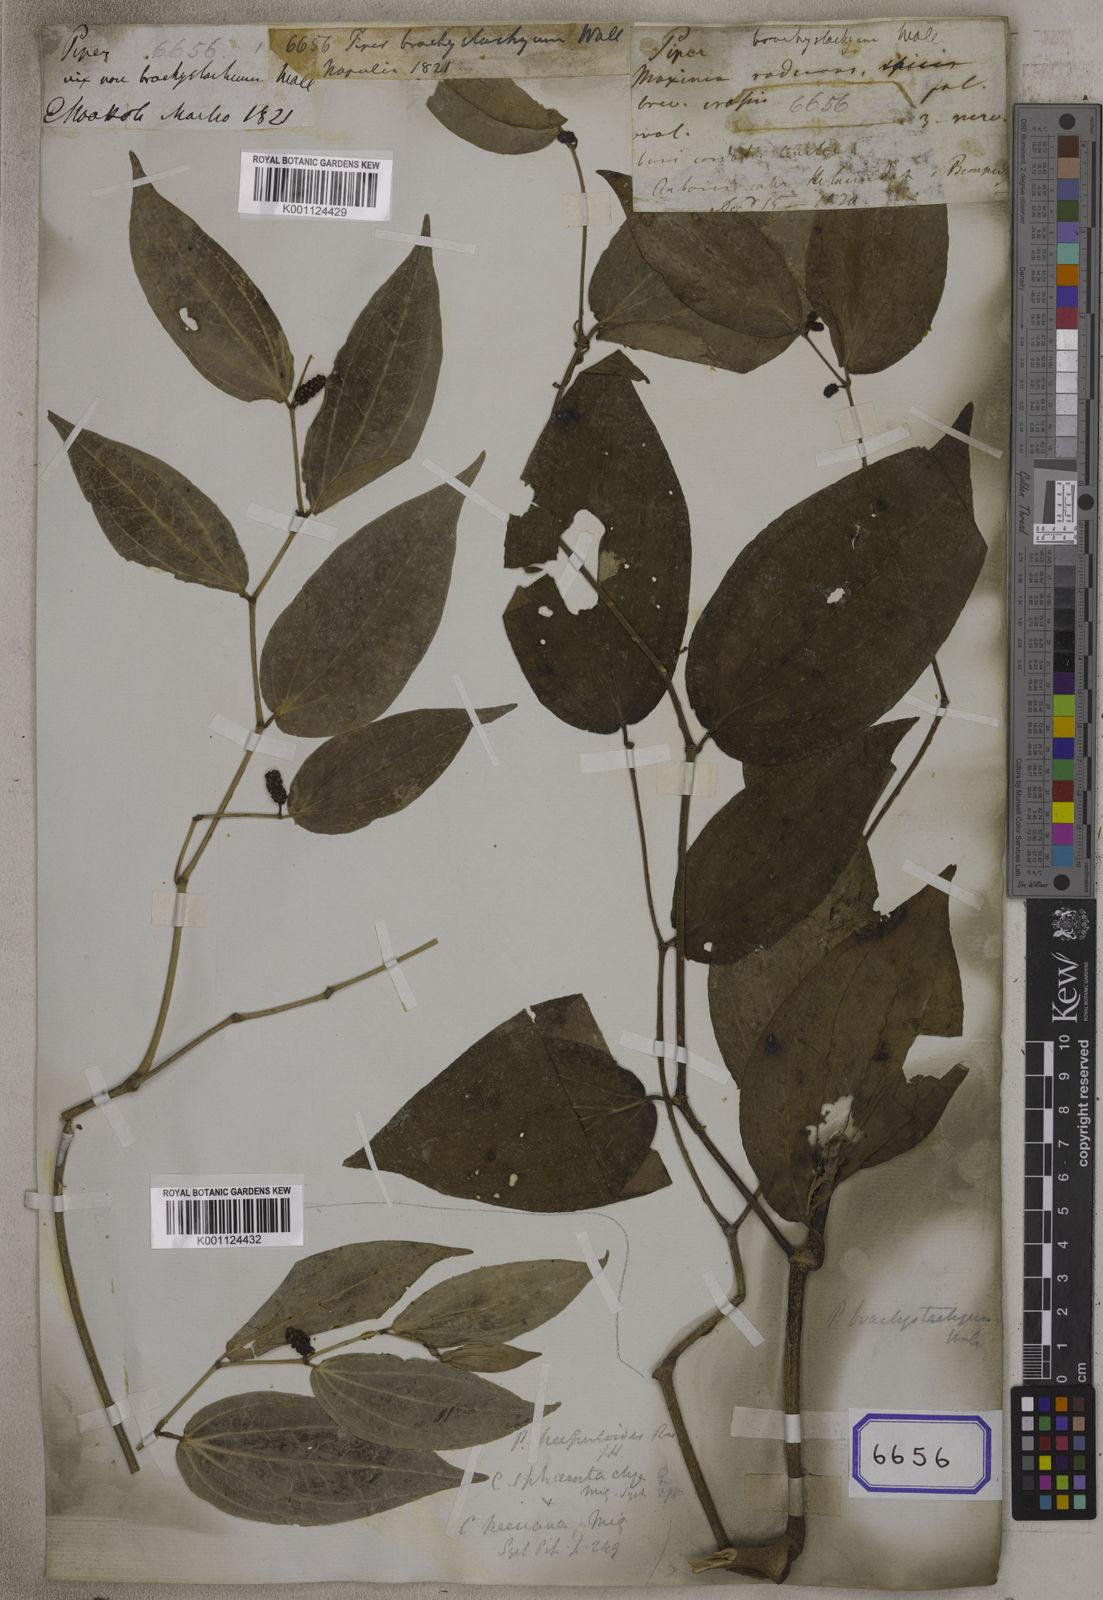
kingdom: Plantae
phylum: Tracheophyta
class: Magnoliopsida
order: Piperales
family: Piperaceae
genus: Piper
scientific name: Piper
